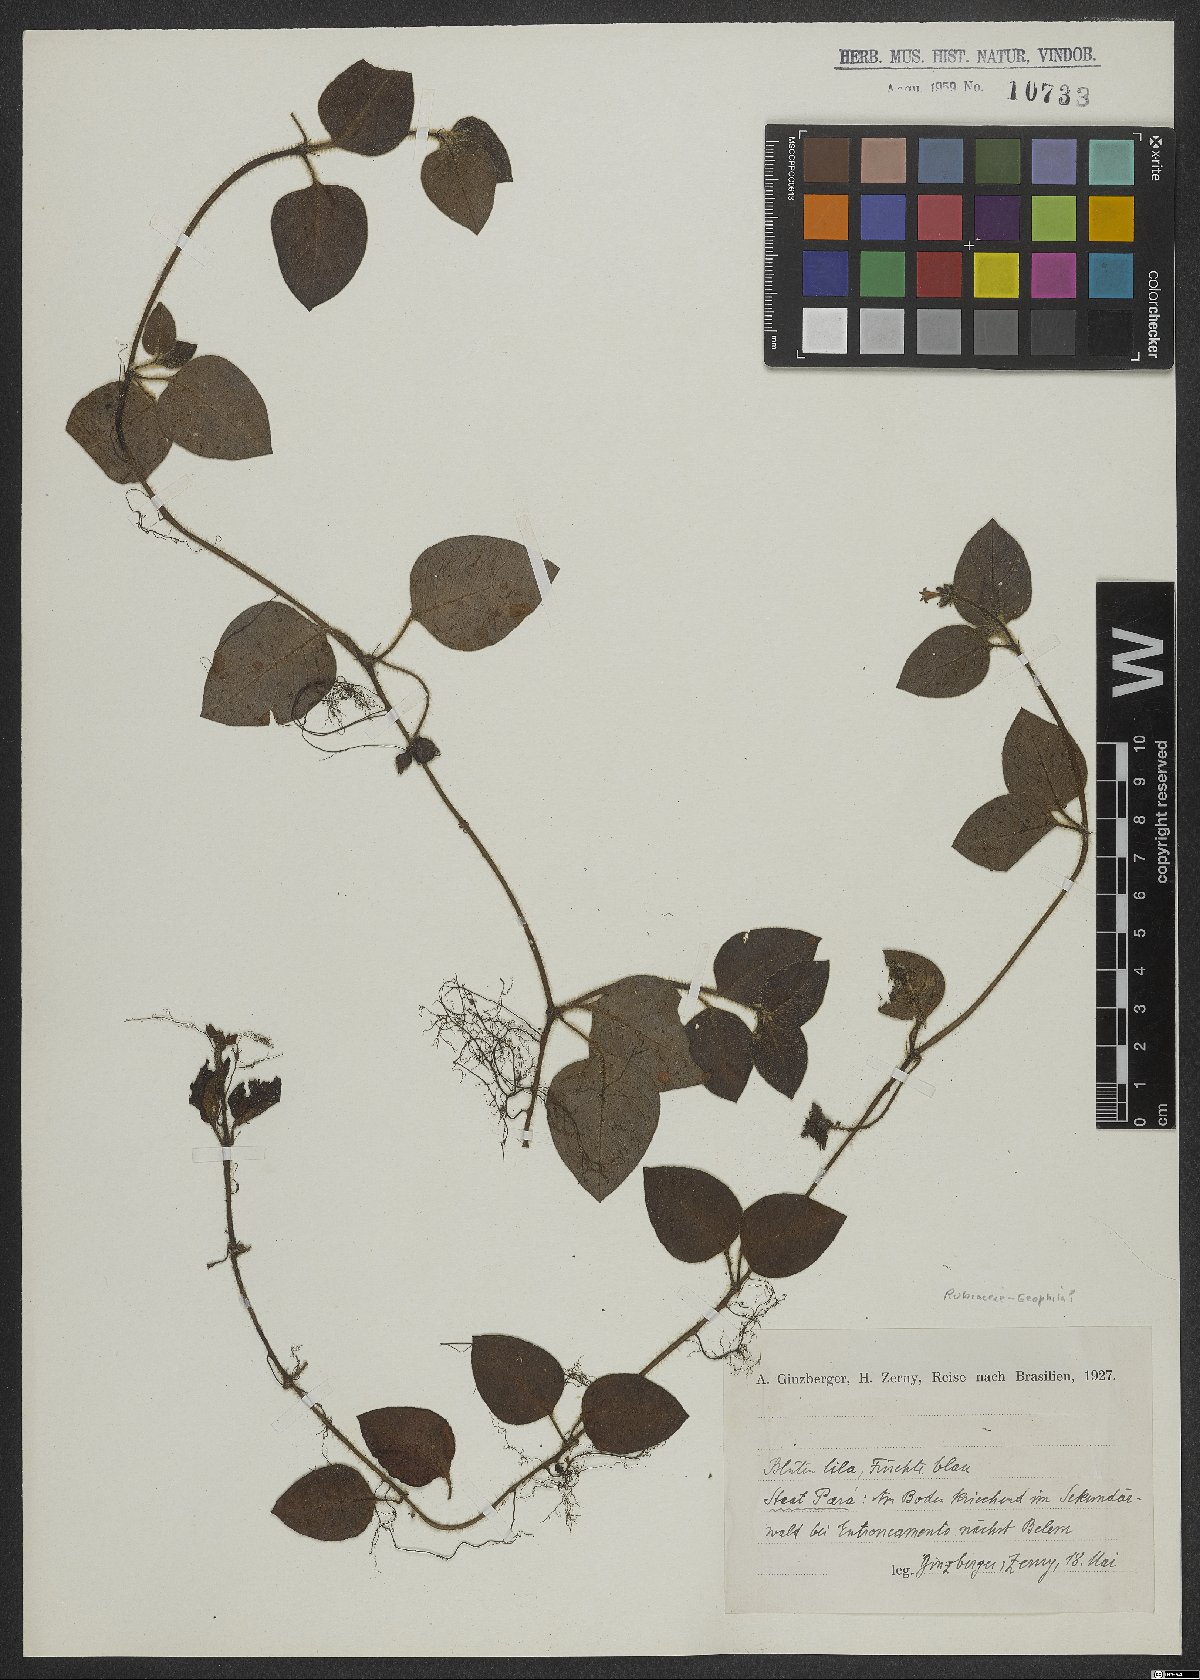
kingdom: Plantae
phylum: Tracheophyta
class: Magnoliopsida
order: Gentianales
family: Rubiaceae
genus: Coccocypselum
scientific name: Coccocypselum
